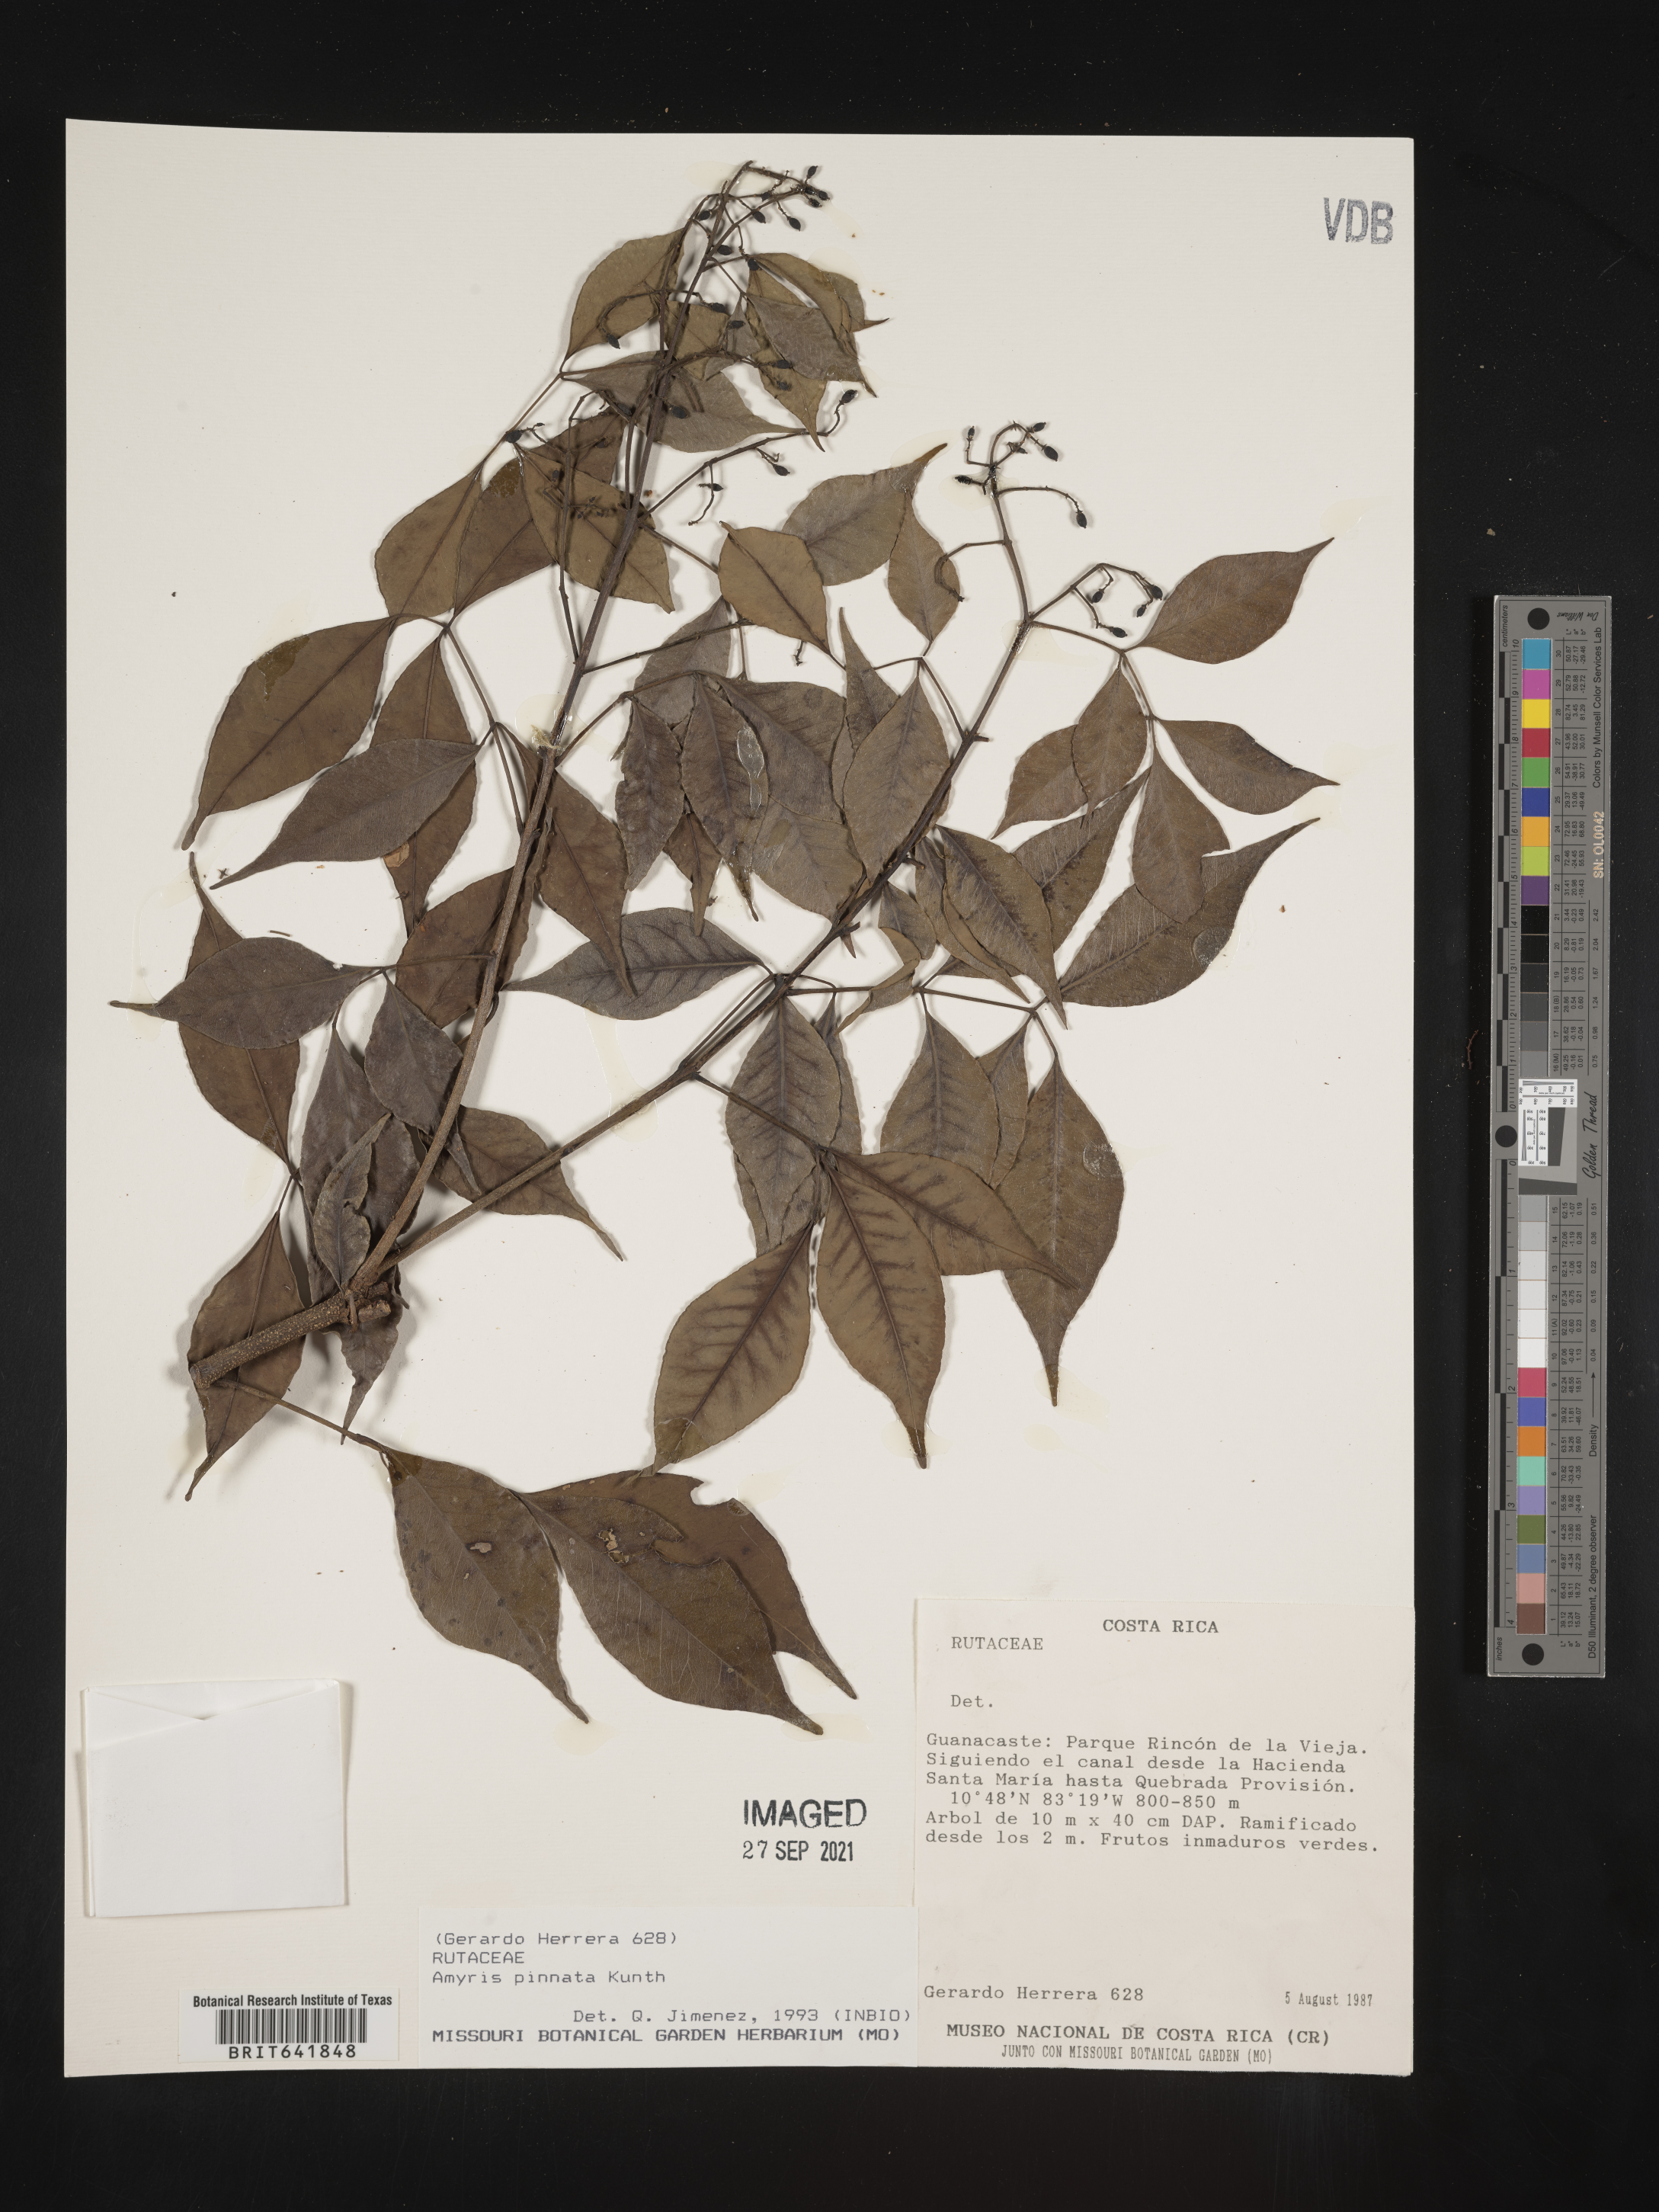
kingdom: Plantae
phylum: Tracheophyta
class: Magnoliopsida
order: Sapindales
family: Rutaceae
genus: Amyris
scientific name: Amyris
